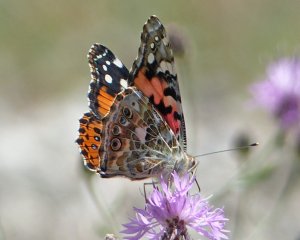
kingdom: Animalia
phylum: Arthropoda
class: Insecta
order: Lepidoptera
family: Nymphalidae
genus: Vanessa
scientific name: Vanessa cardui
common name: Painted Lady
